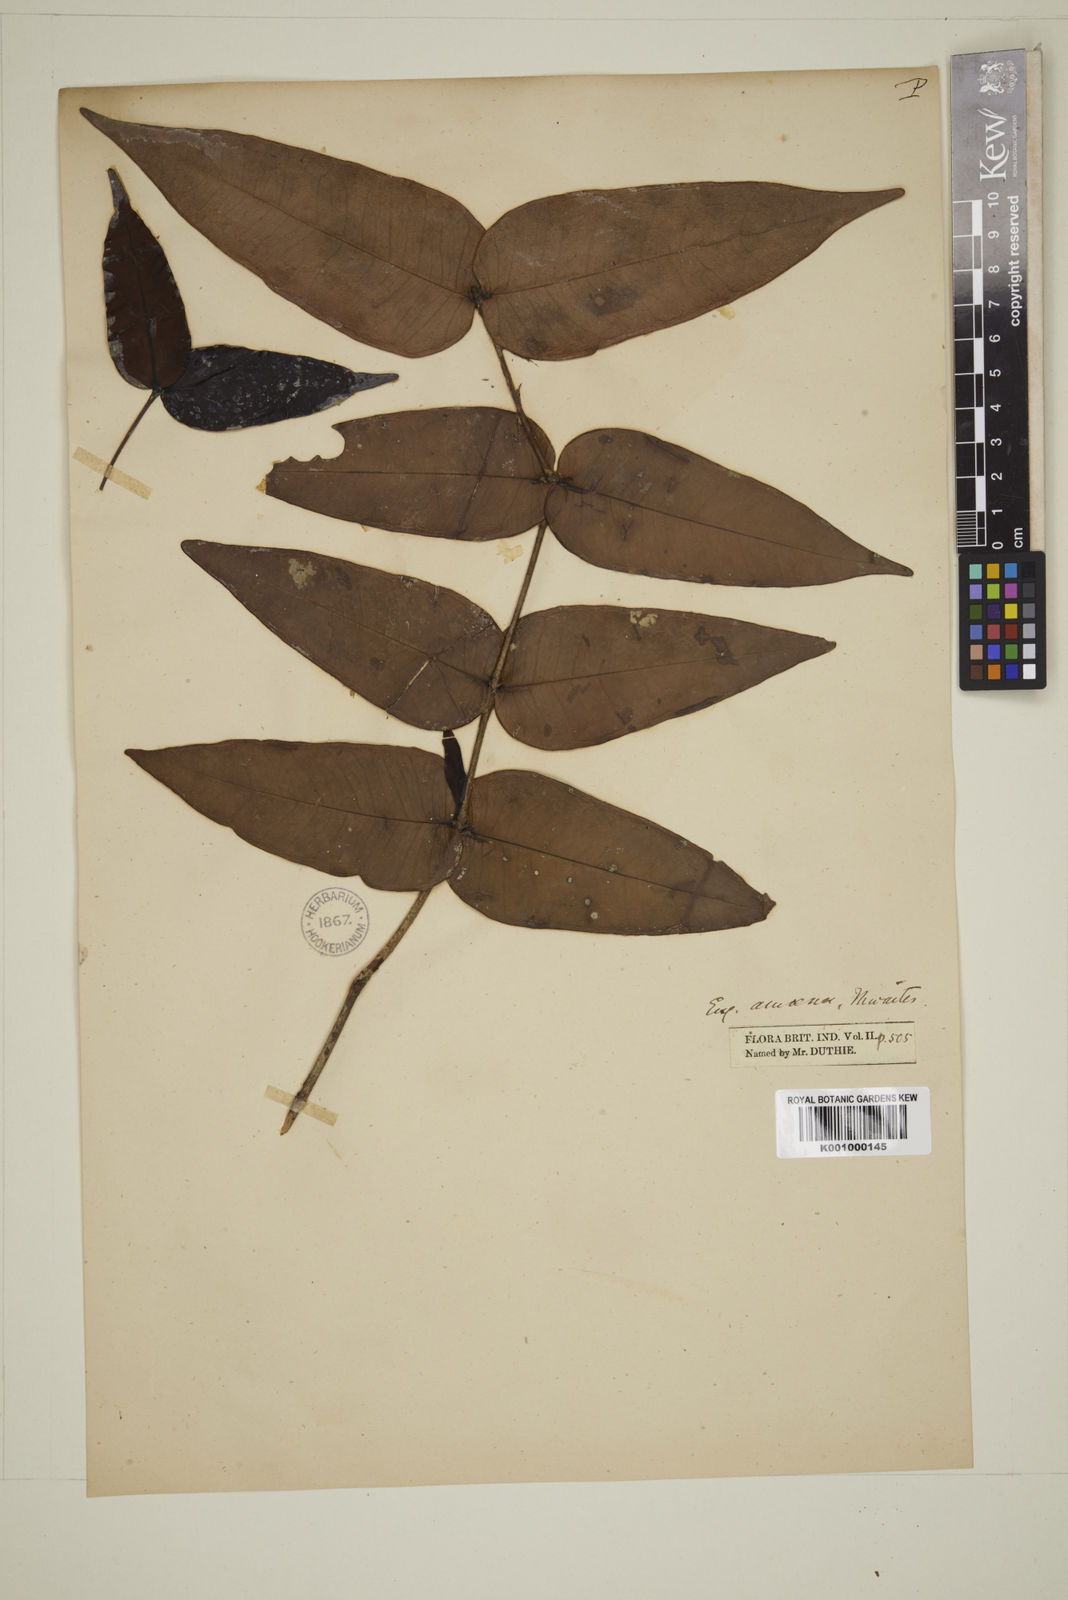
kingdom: Plantae
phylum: Tracheophyta
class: Magnoliopsida
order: Myrtales
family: Myrtaceae
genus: Eugenia
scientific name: Eugenia amoena
